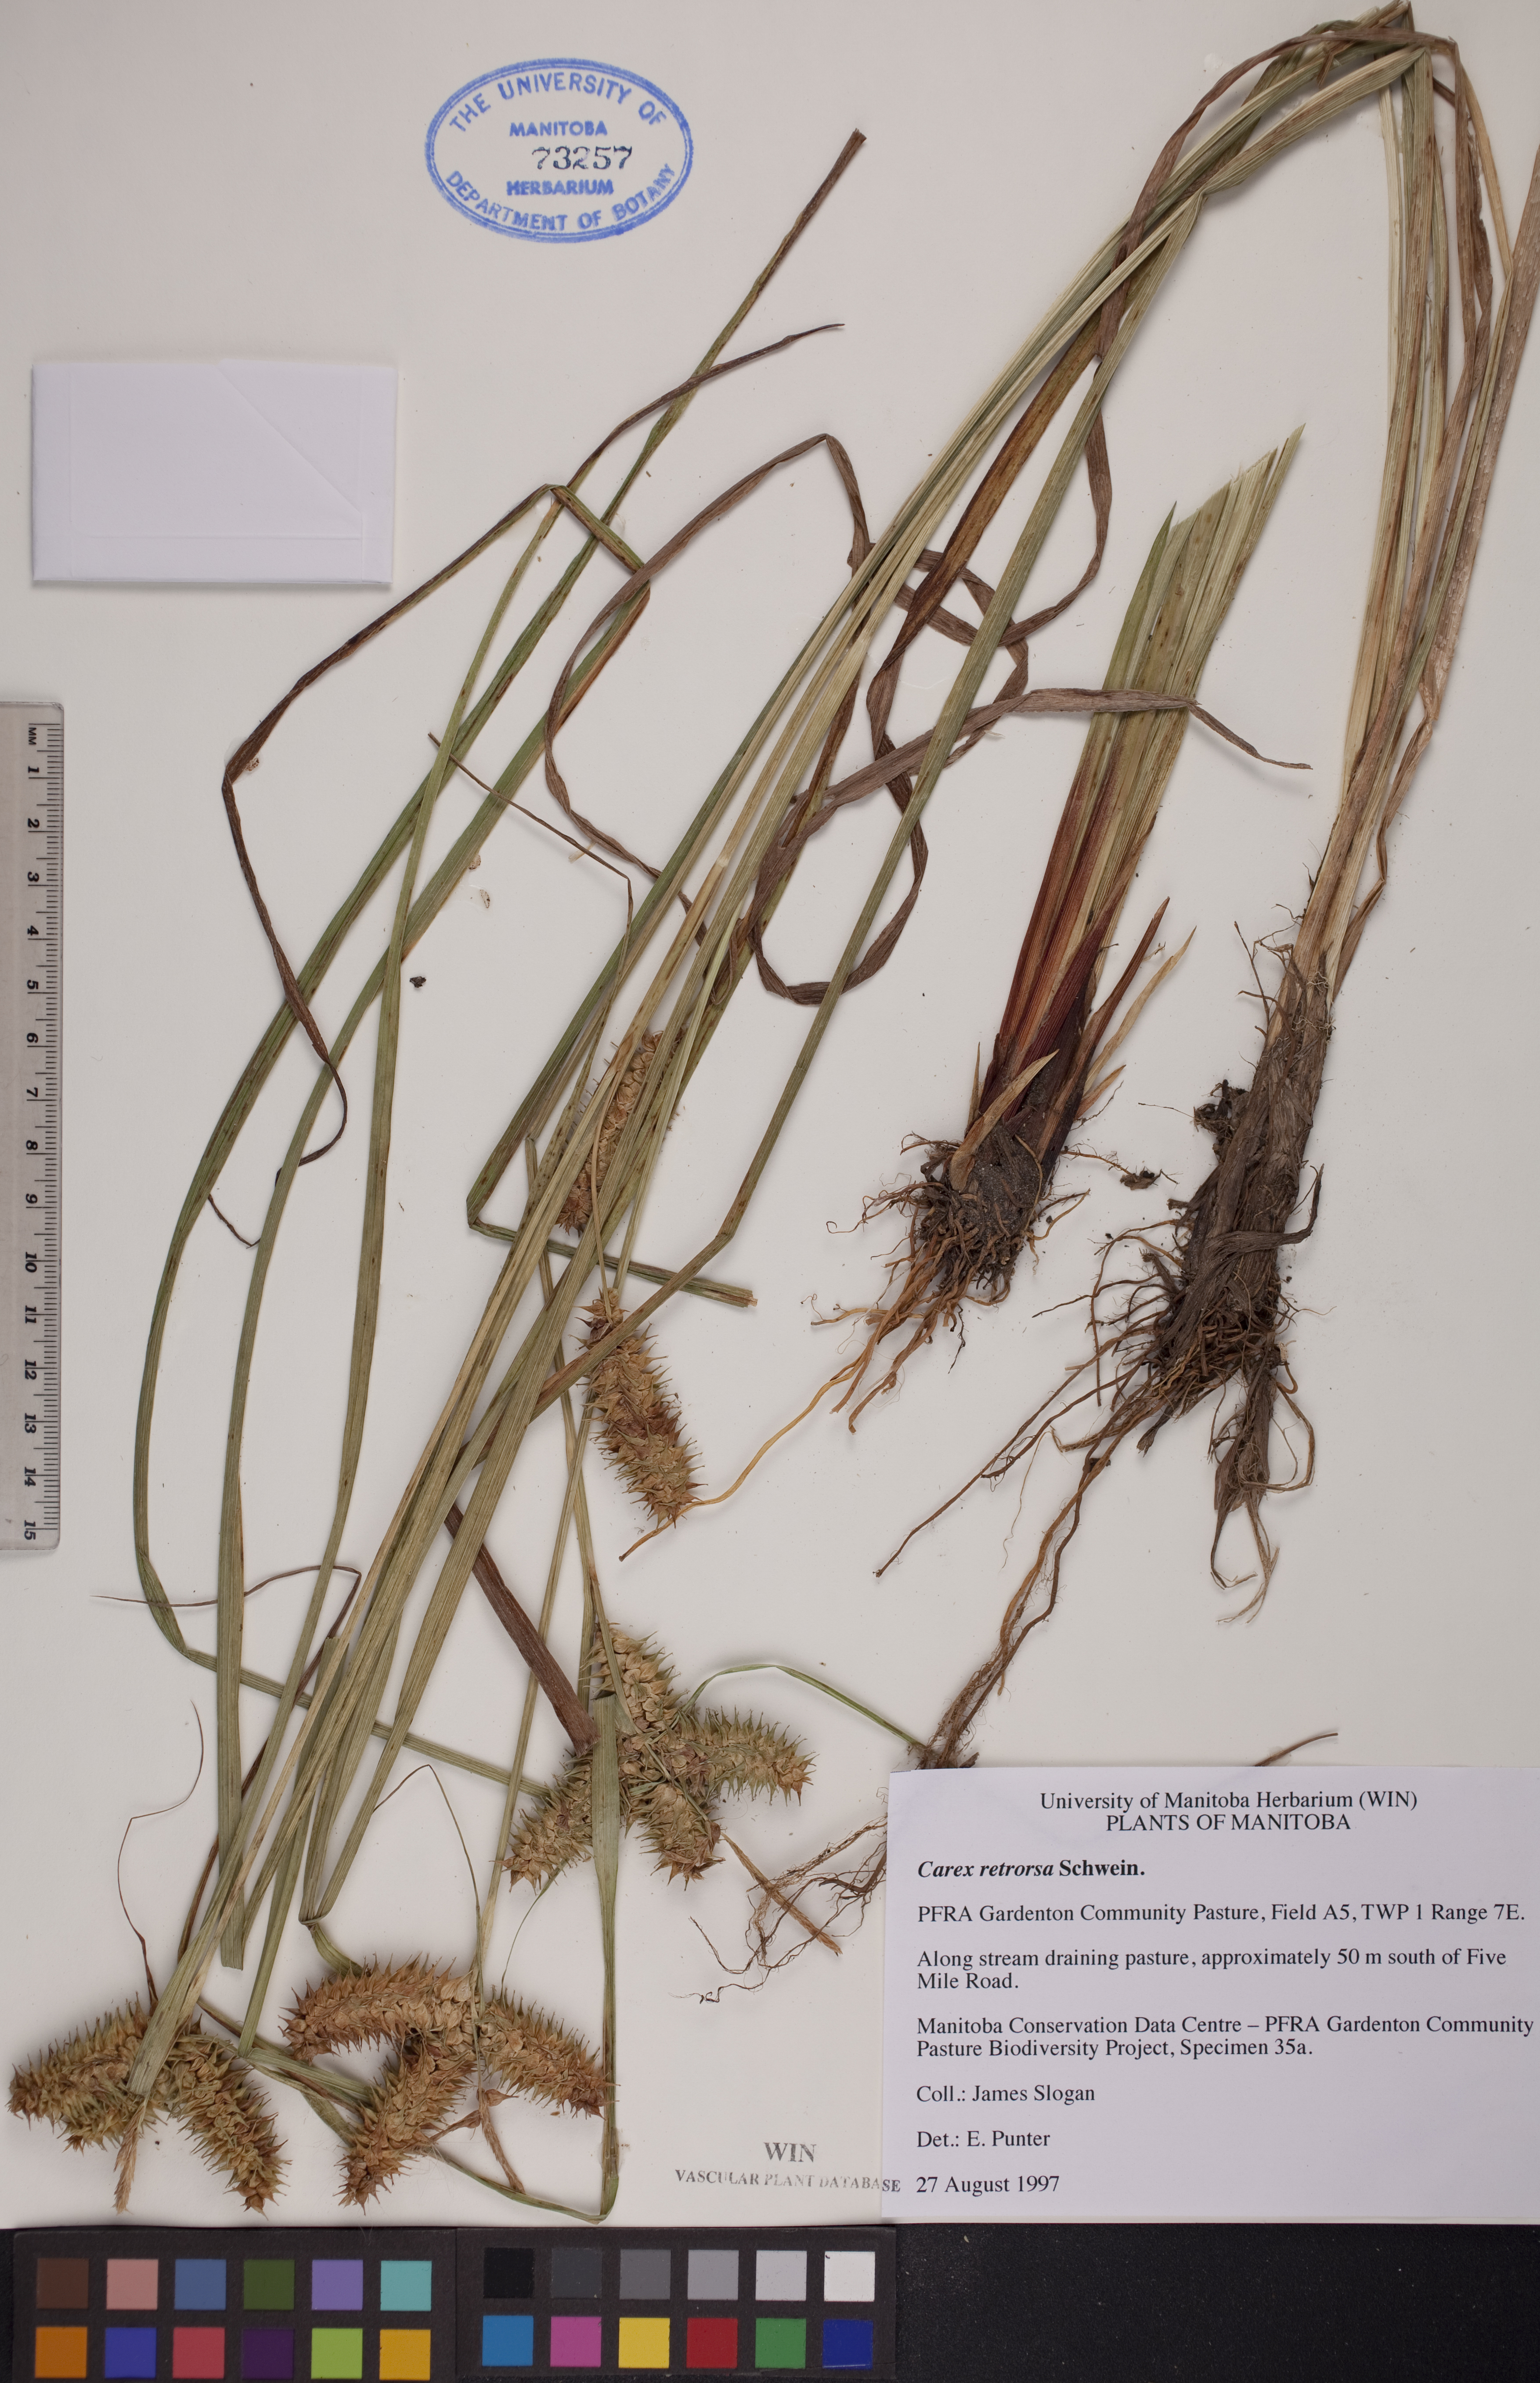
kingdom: Plantae
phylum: Tracheophyta
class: Liliopsida
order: Poales
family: Cyperaceae
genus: Carex
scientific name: Carex retrorsa
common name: Knot-sheath sedge
